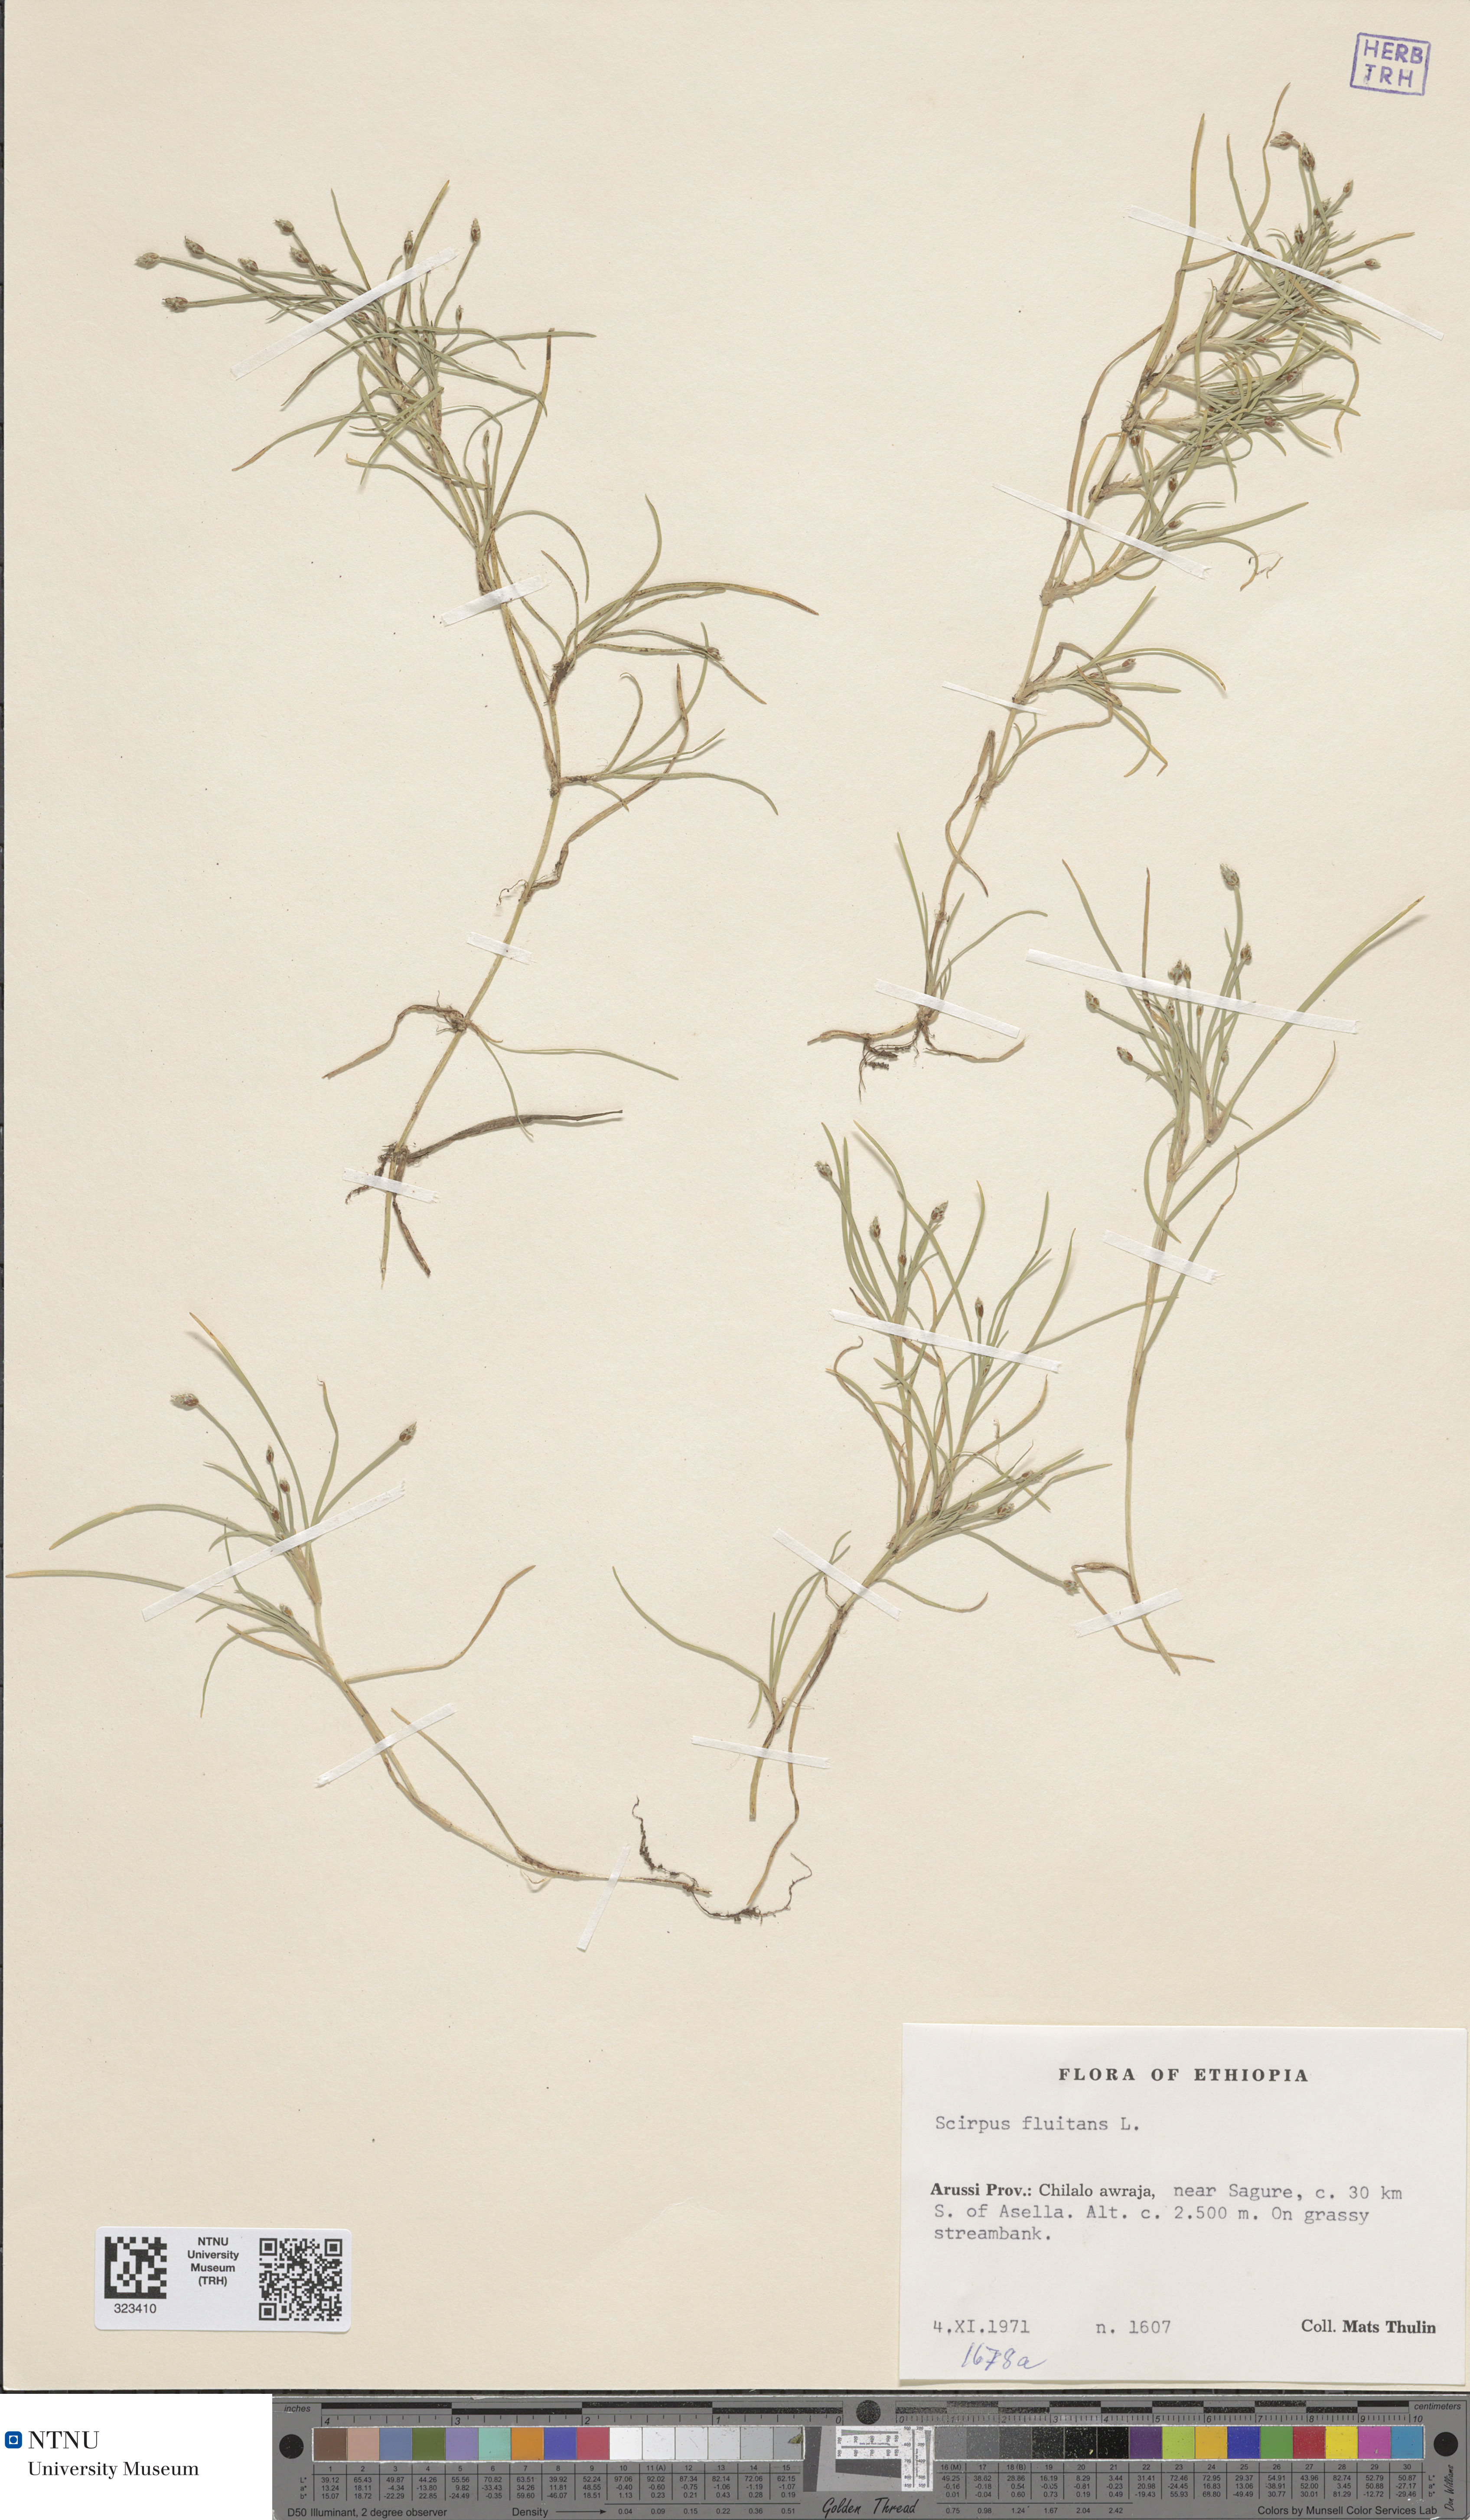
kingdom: Plantae
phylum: Tracheophyta
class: Liliopsida
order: Poales
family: Cyperaceae
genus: Isolepis
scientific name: Isolepis fluitans
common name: Floating club-rush
